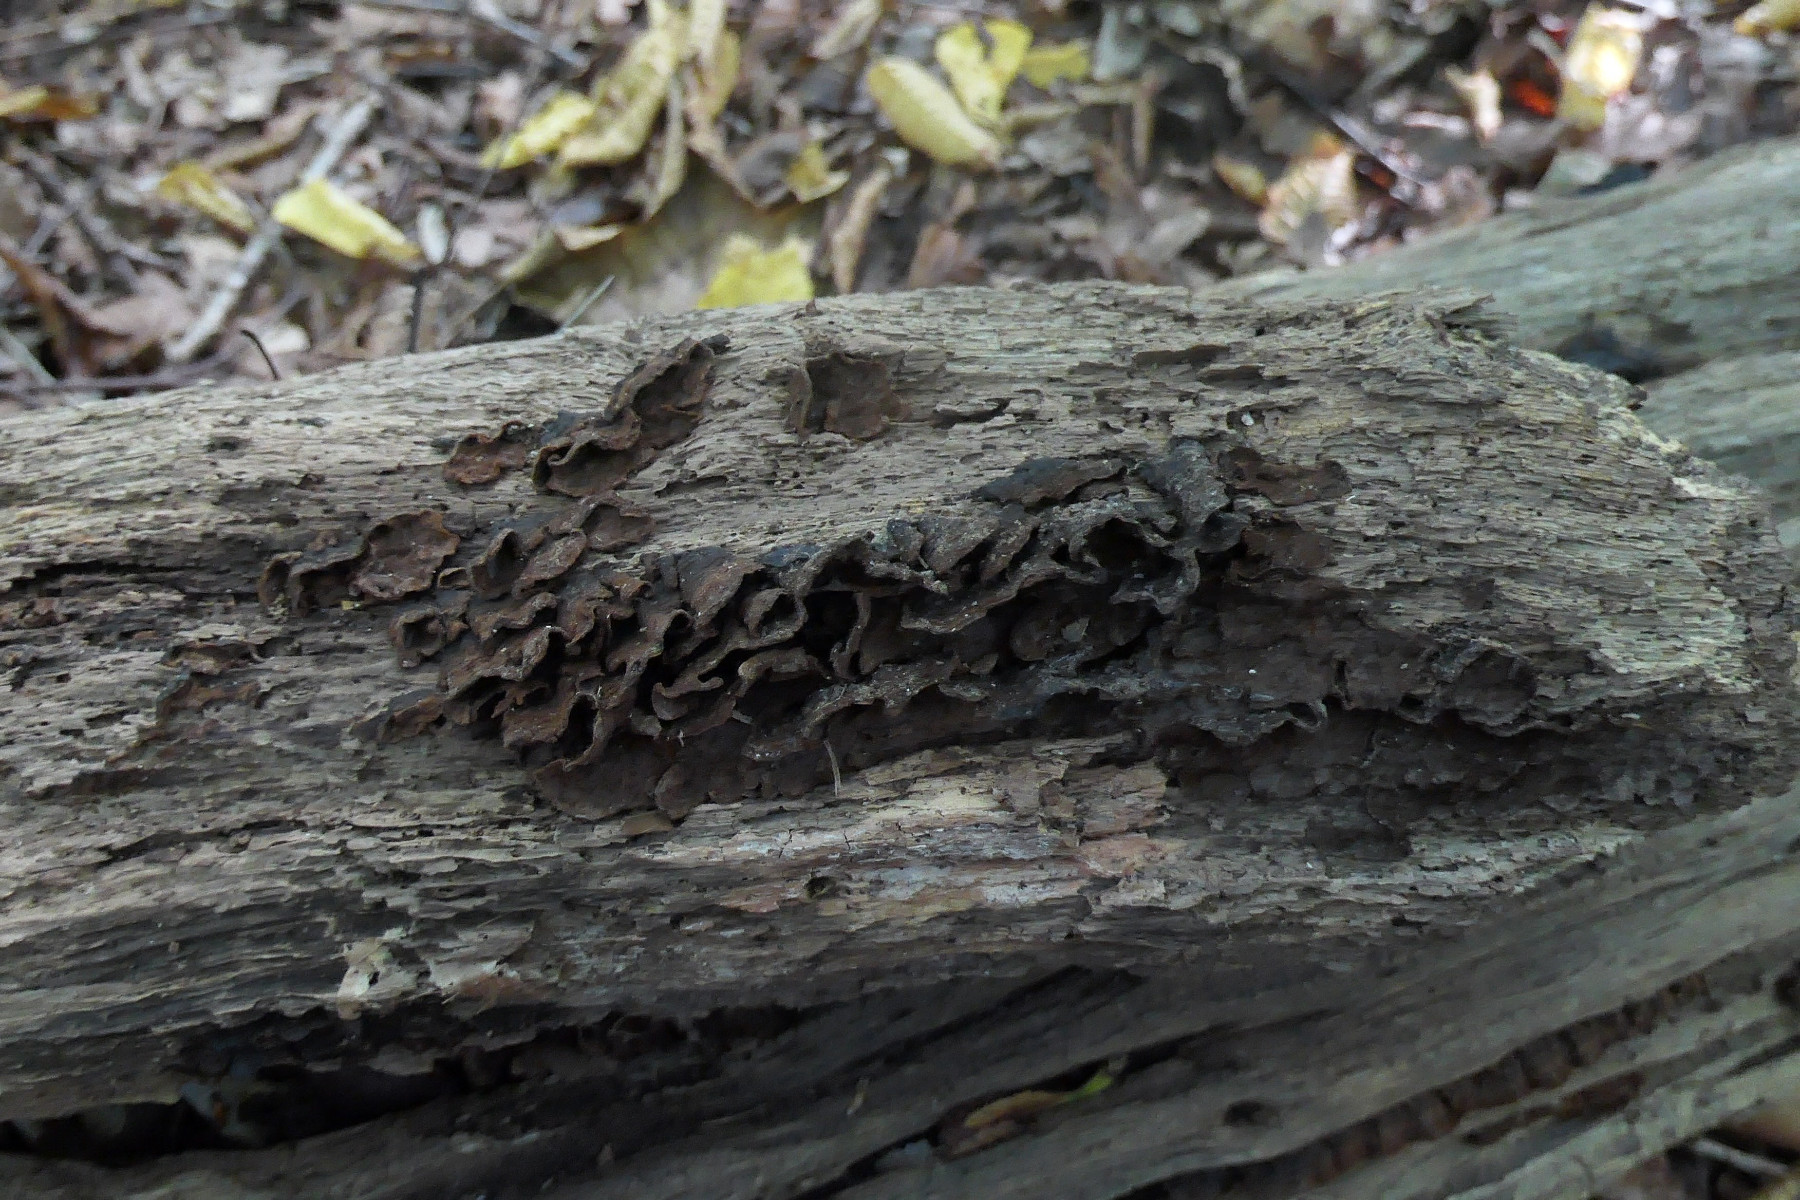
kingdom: Fungi
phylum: Basidiomycota
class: Agaricomycetes
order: Hymenochaetales
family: Hymenochaetaceae
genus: Hymenochaete
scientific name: Hymenochaete rubiginosa
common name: stiv ruslædersvamp
